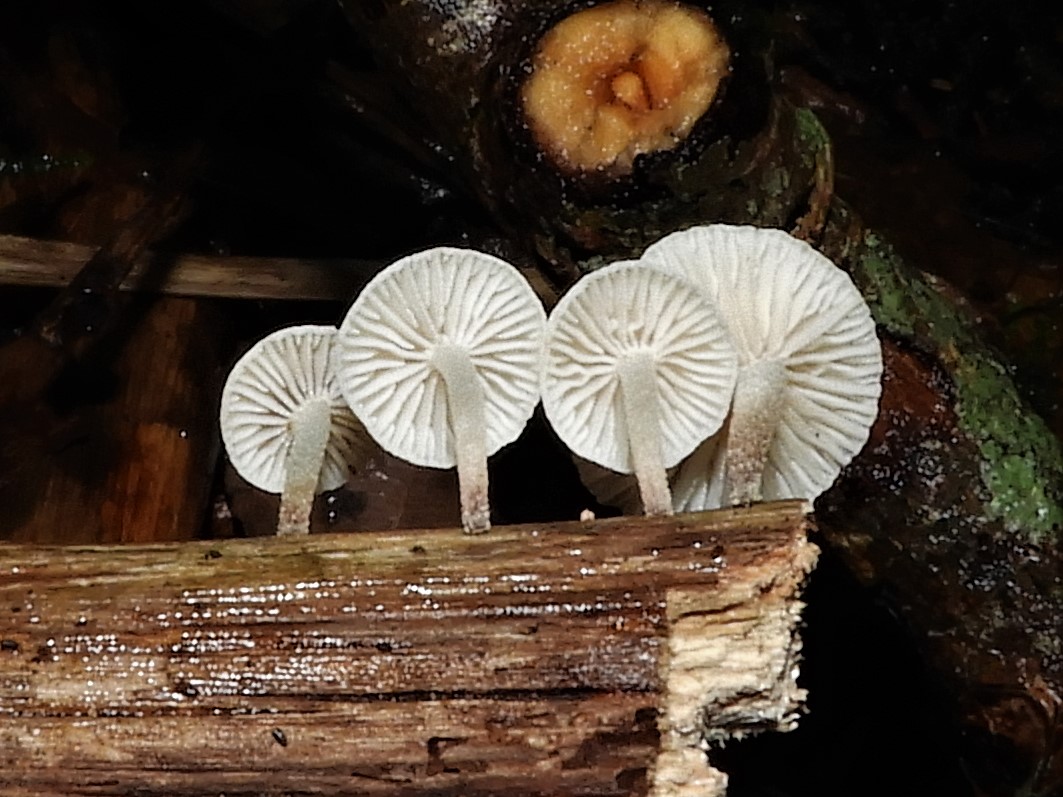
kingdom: Fungi
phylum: Basidiomycota
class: Agaricomycetes
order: Agaricales
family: Omphalotaceae
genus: Collybiopsis
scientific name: Collybiopsis ramealis
